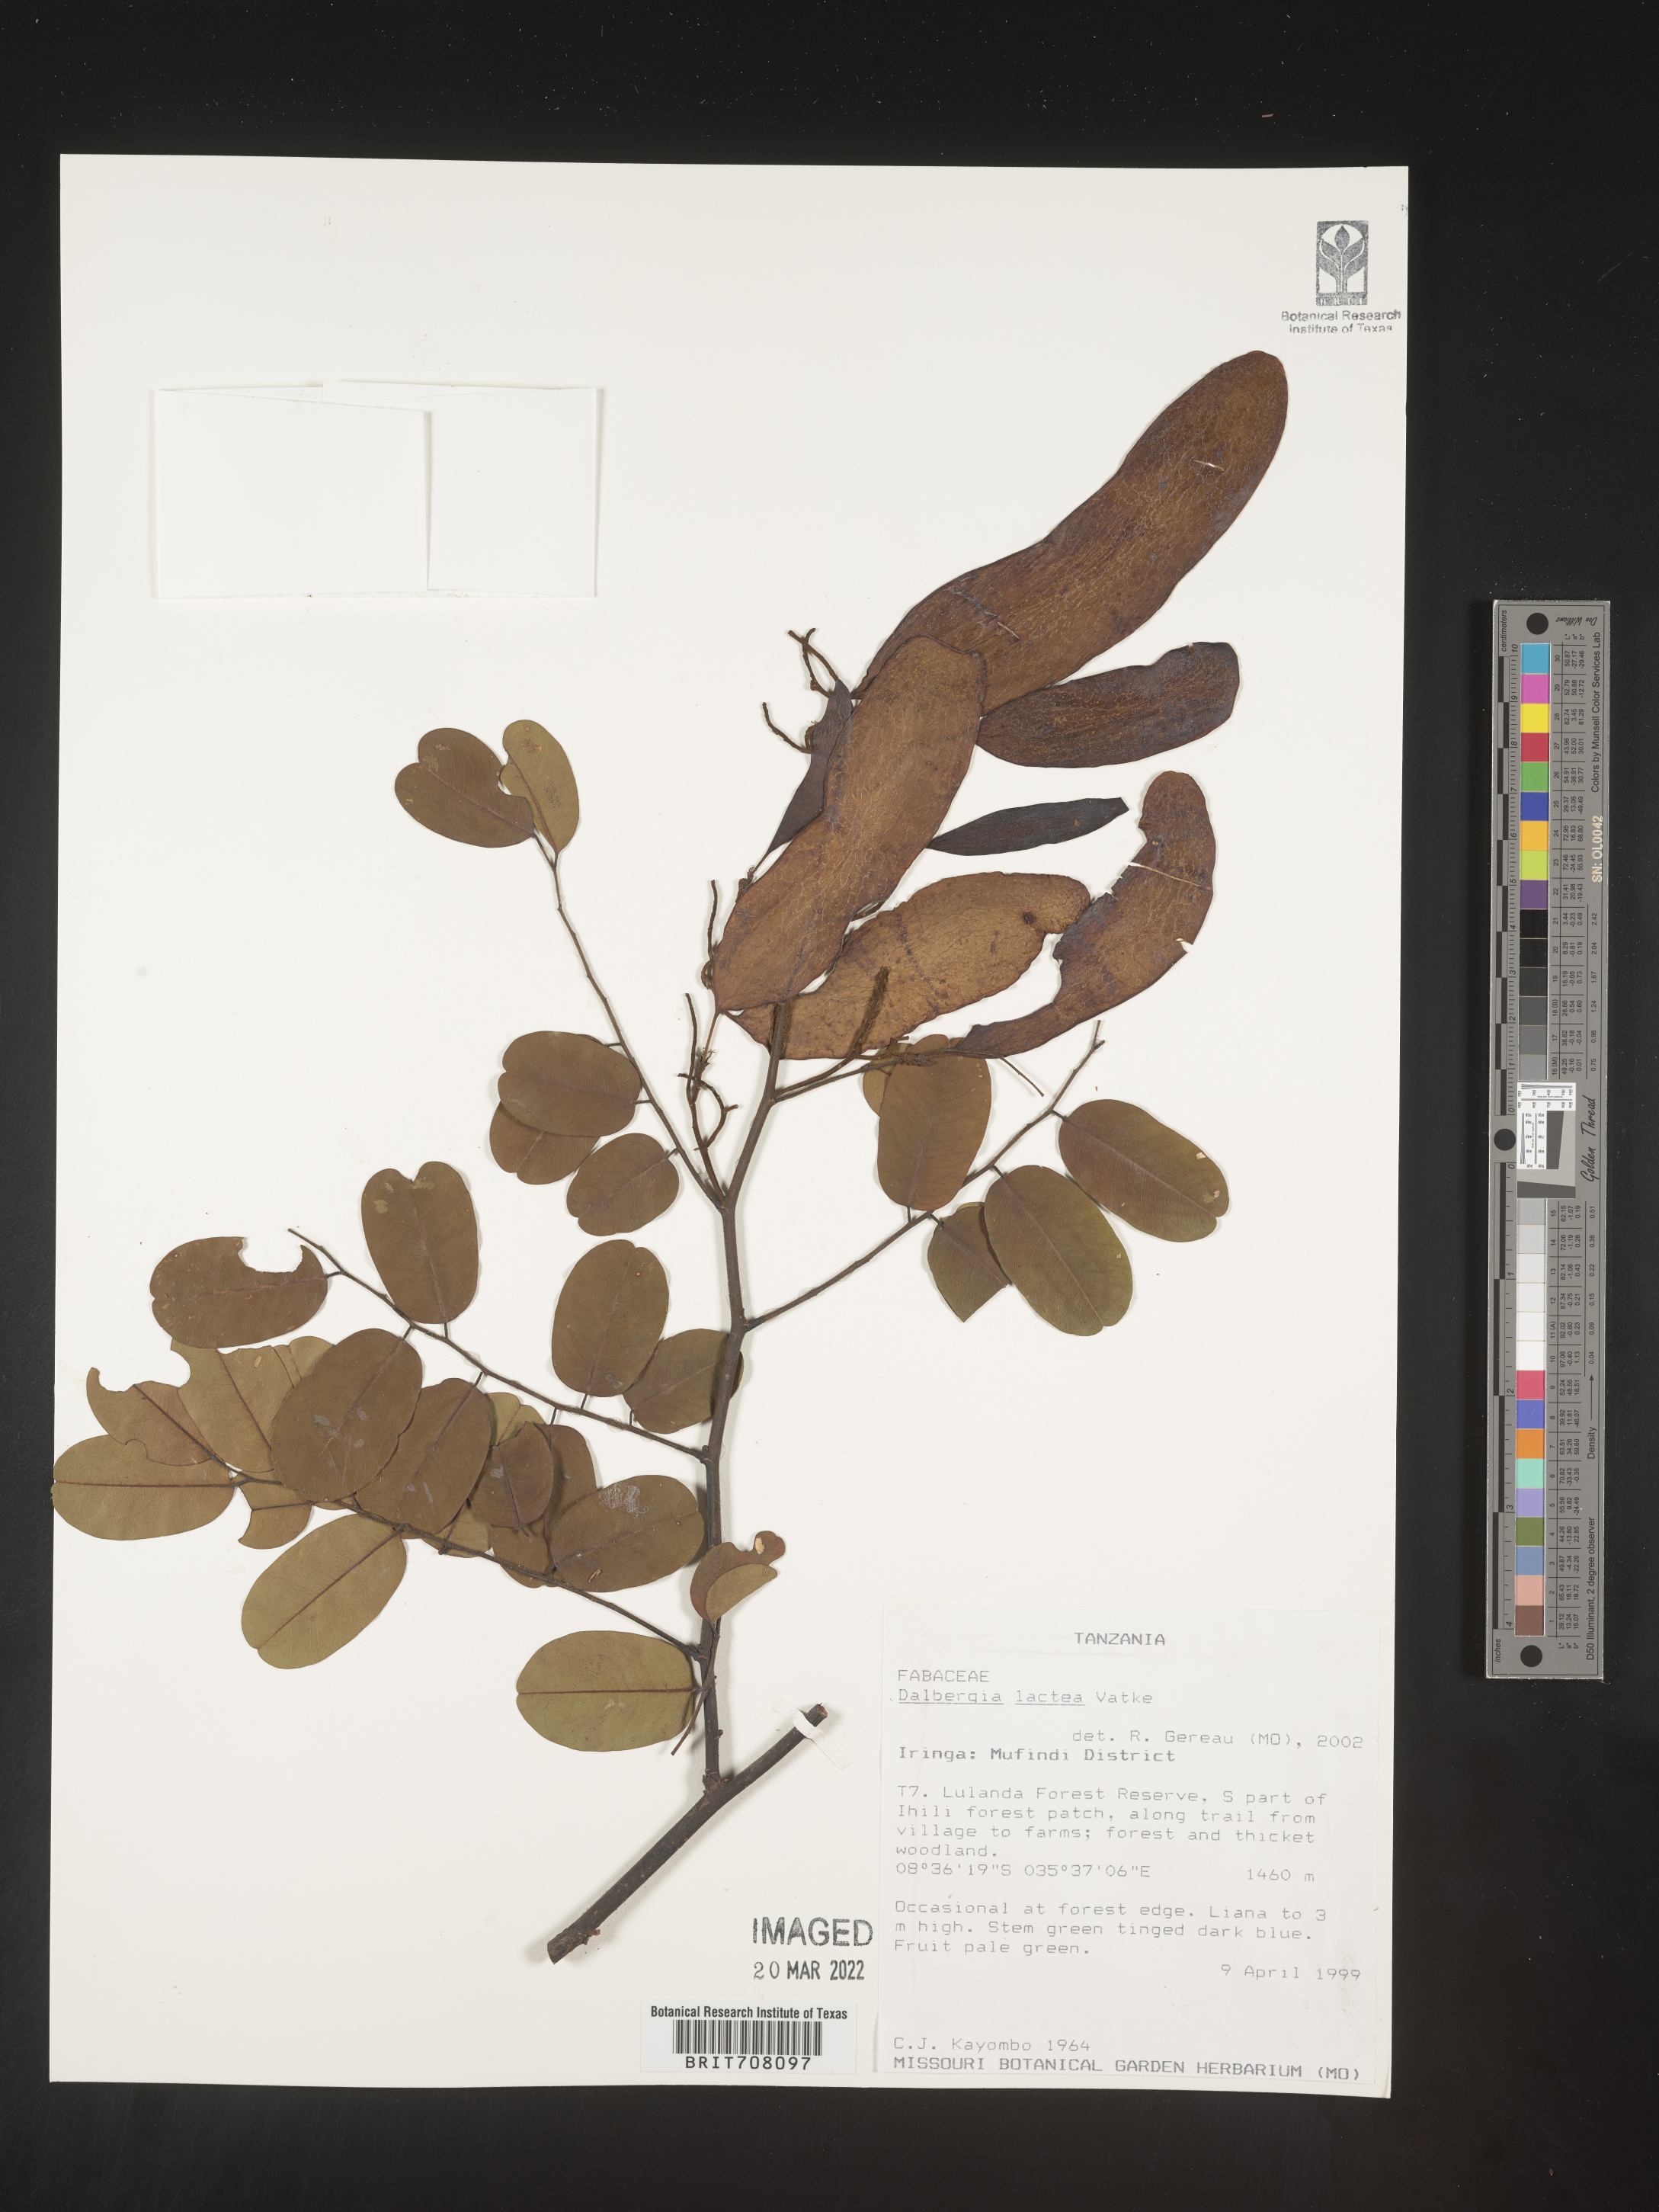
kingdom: Plantae
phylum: Tracheophyta
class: Magnoliopsida
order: Fabales
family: Fabaceae
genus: Dalbergia
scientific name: Dalbergia
